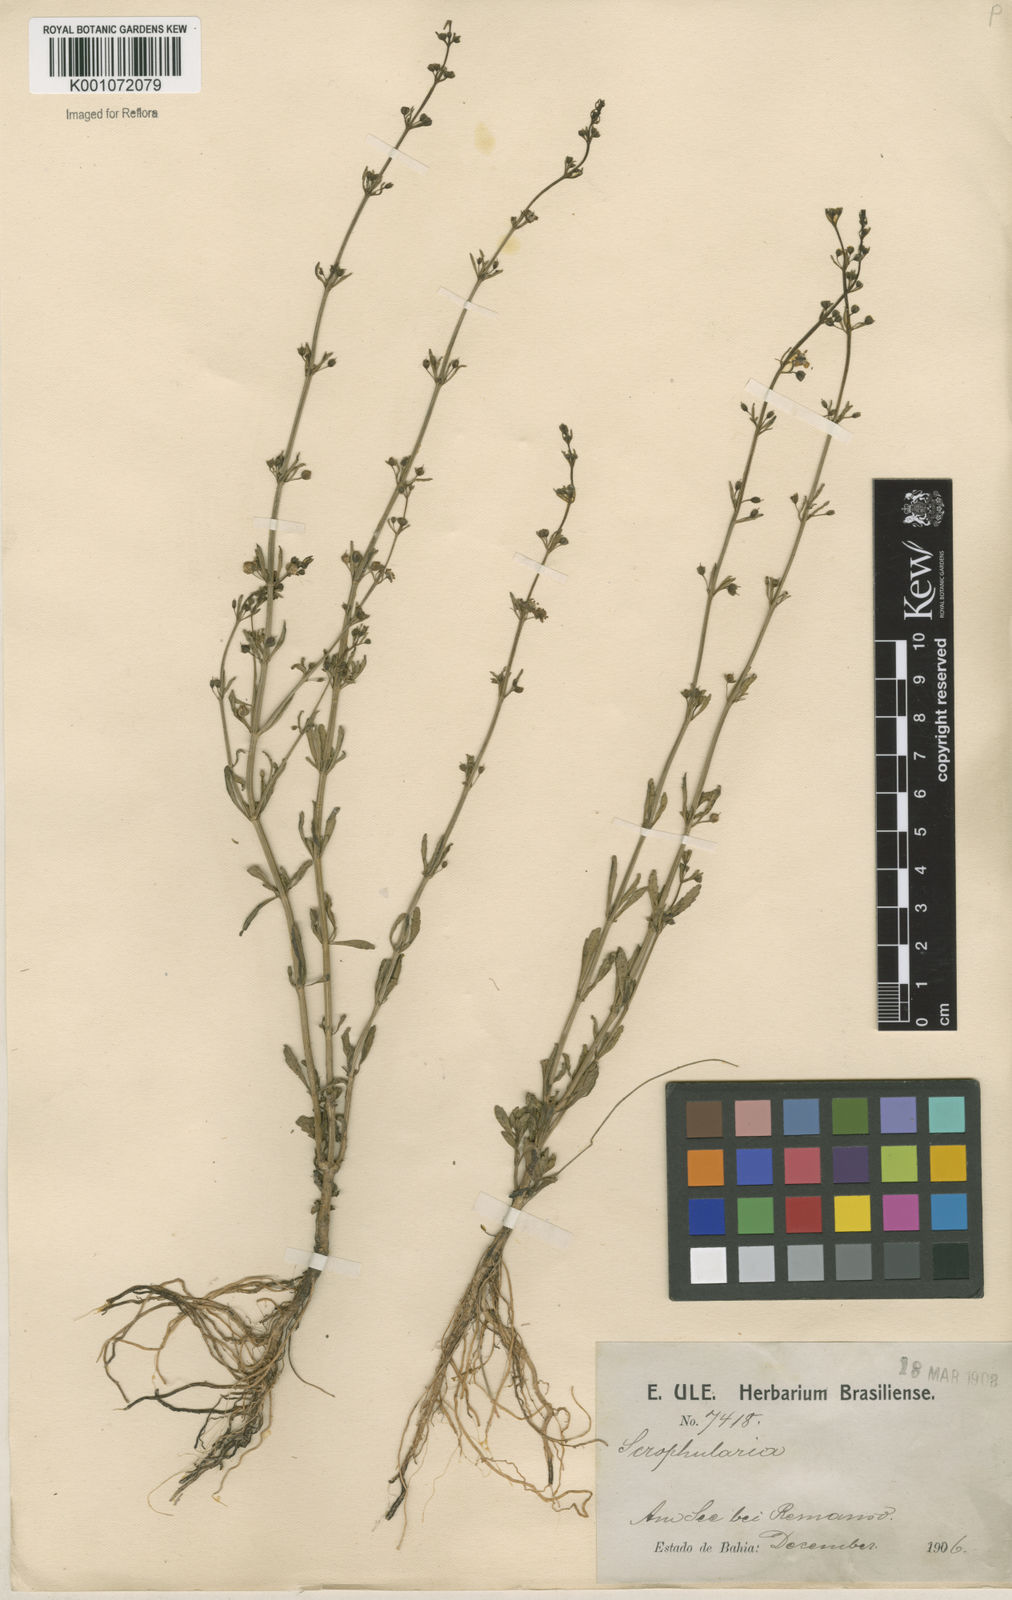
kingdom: Plantae
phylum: Tracheophyta
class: Magnoliopsida
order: Lamiales
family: Plantaginaceae
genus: Scoparia
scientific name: Scoparia dulcis
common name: Scoparia-weed
